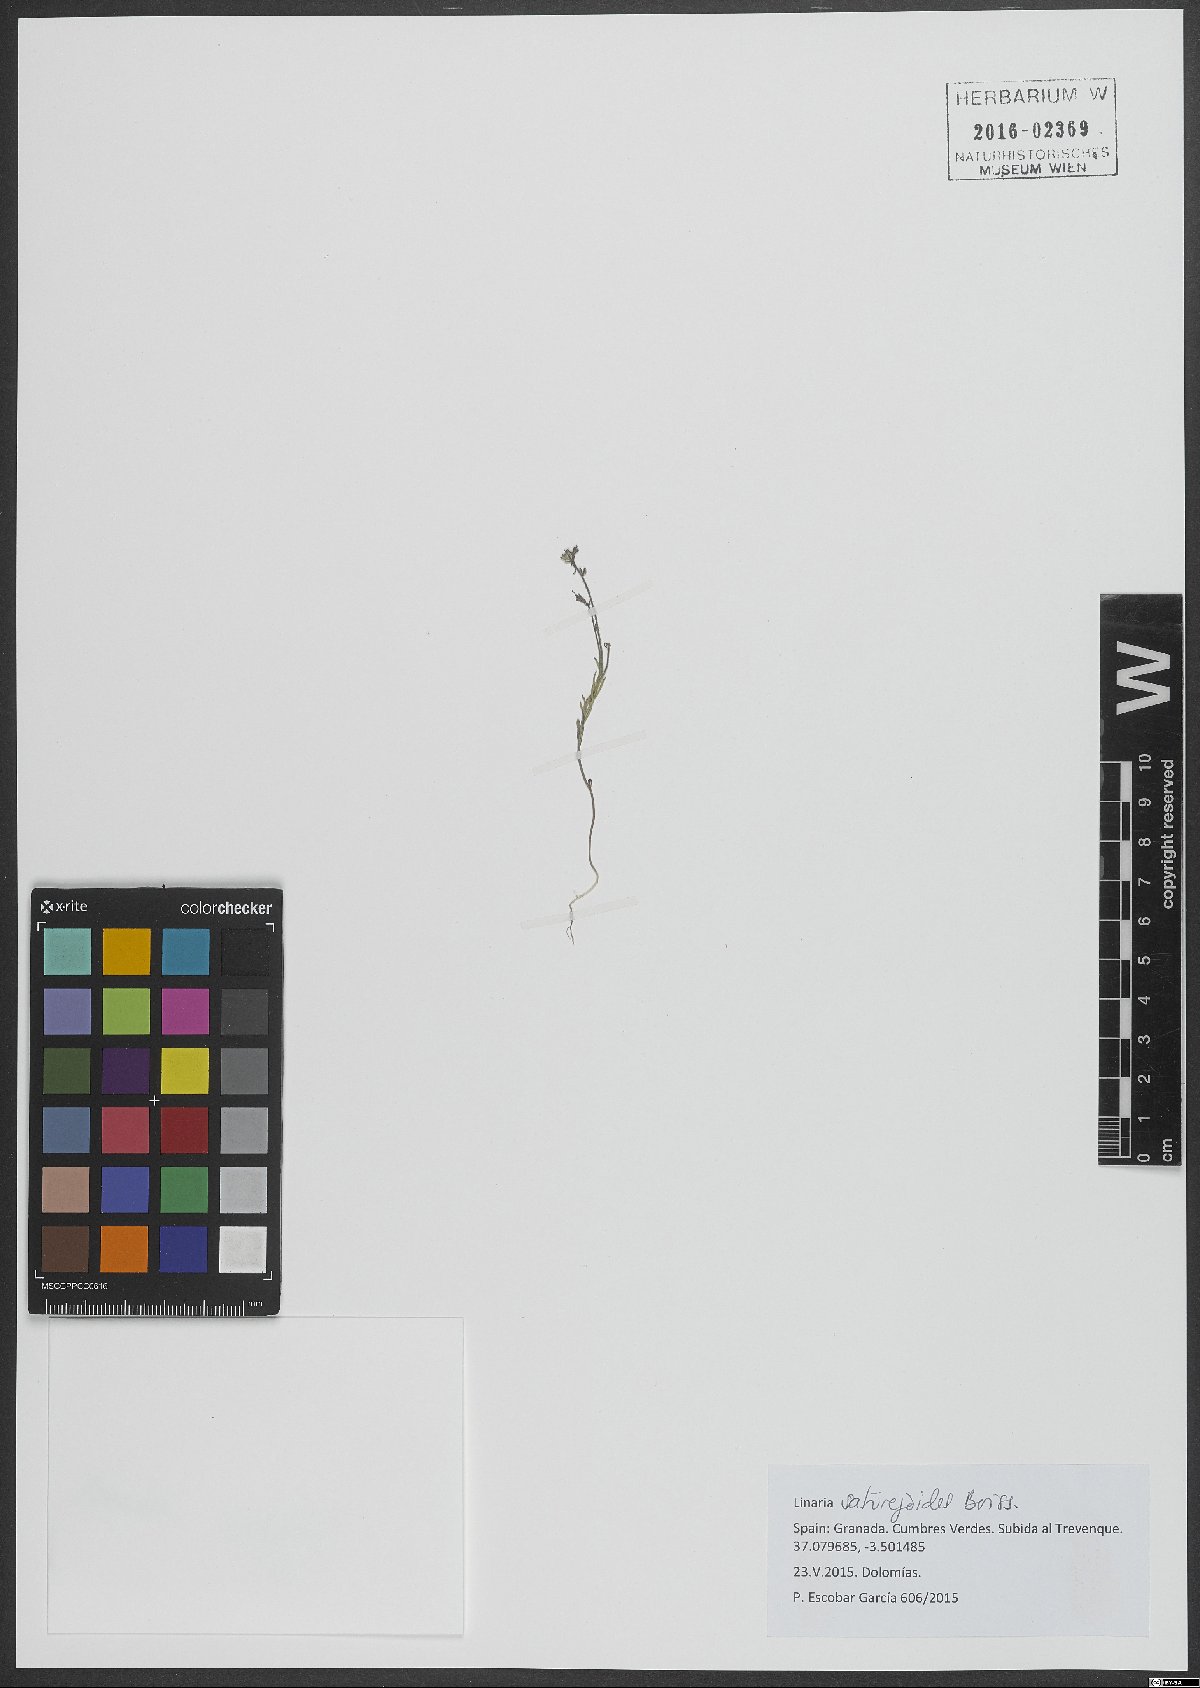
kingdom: Plantae
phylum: Tracheophyta
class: Magnoliopsida
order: Lamiales
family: Plantaginaceae
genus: Linaria
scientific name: Linaria saturejoides
